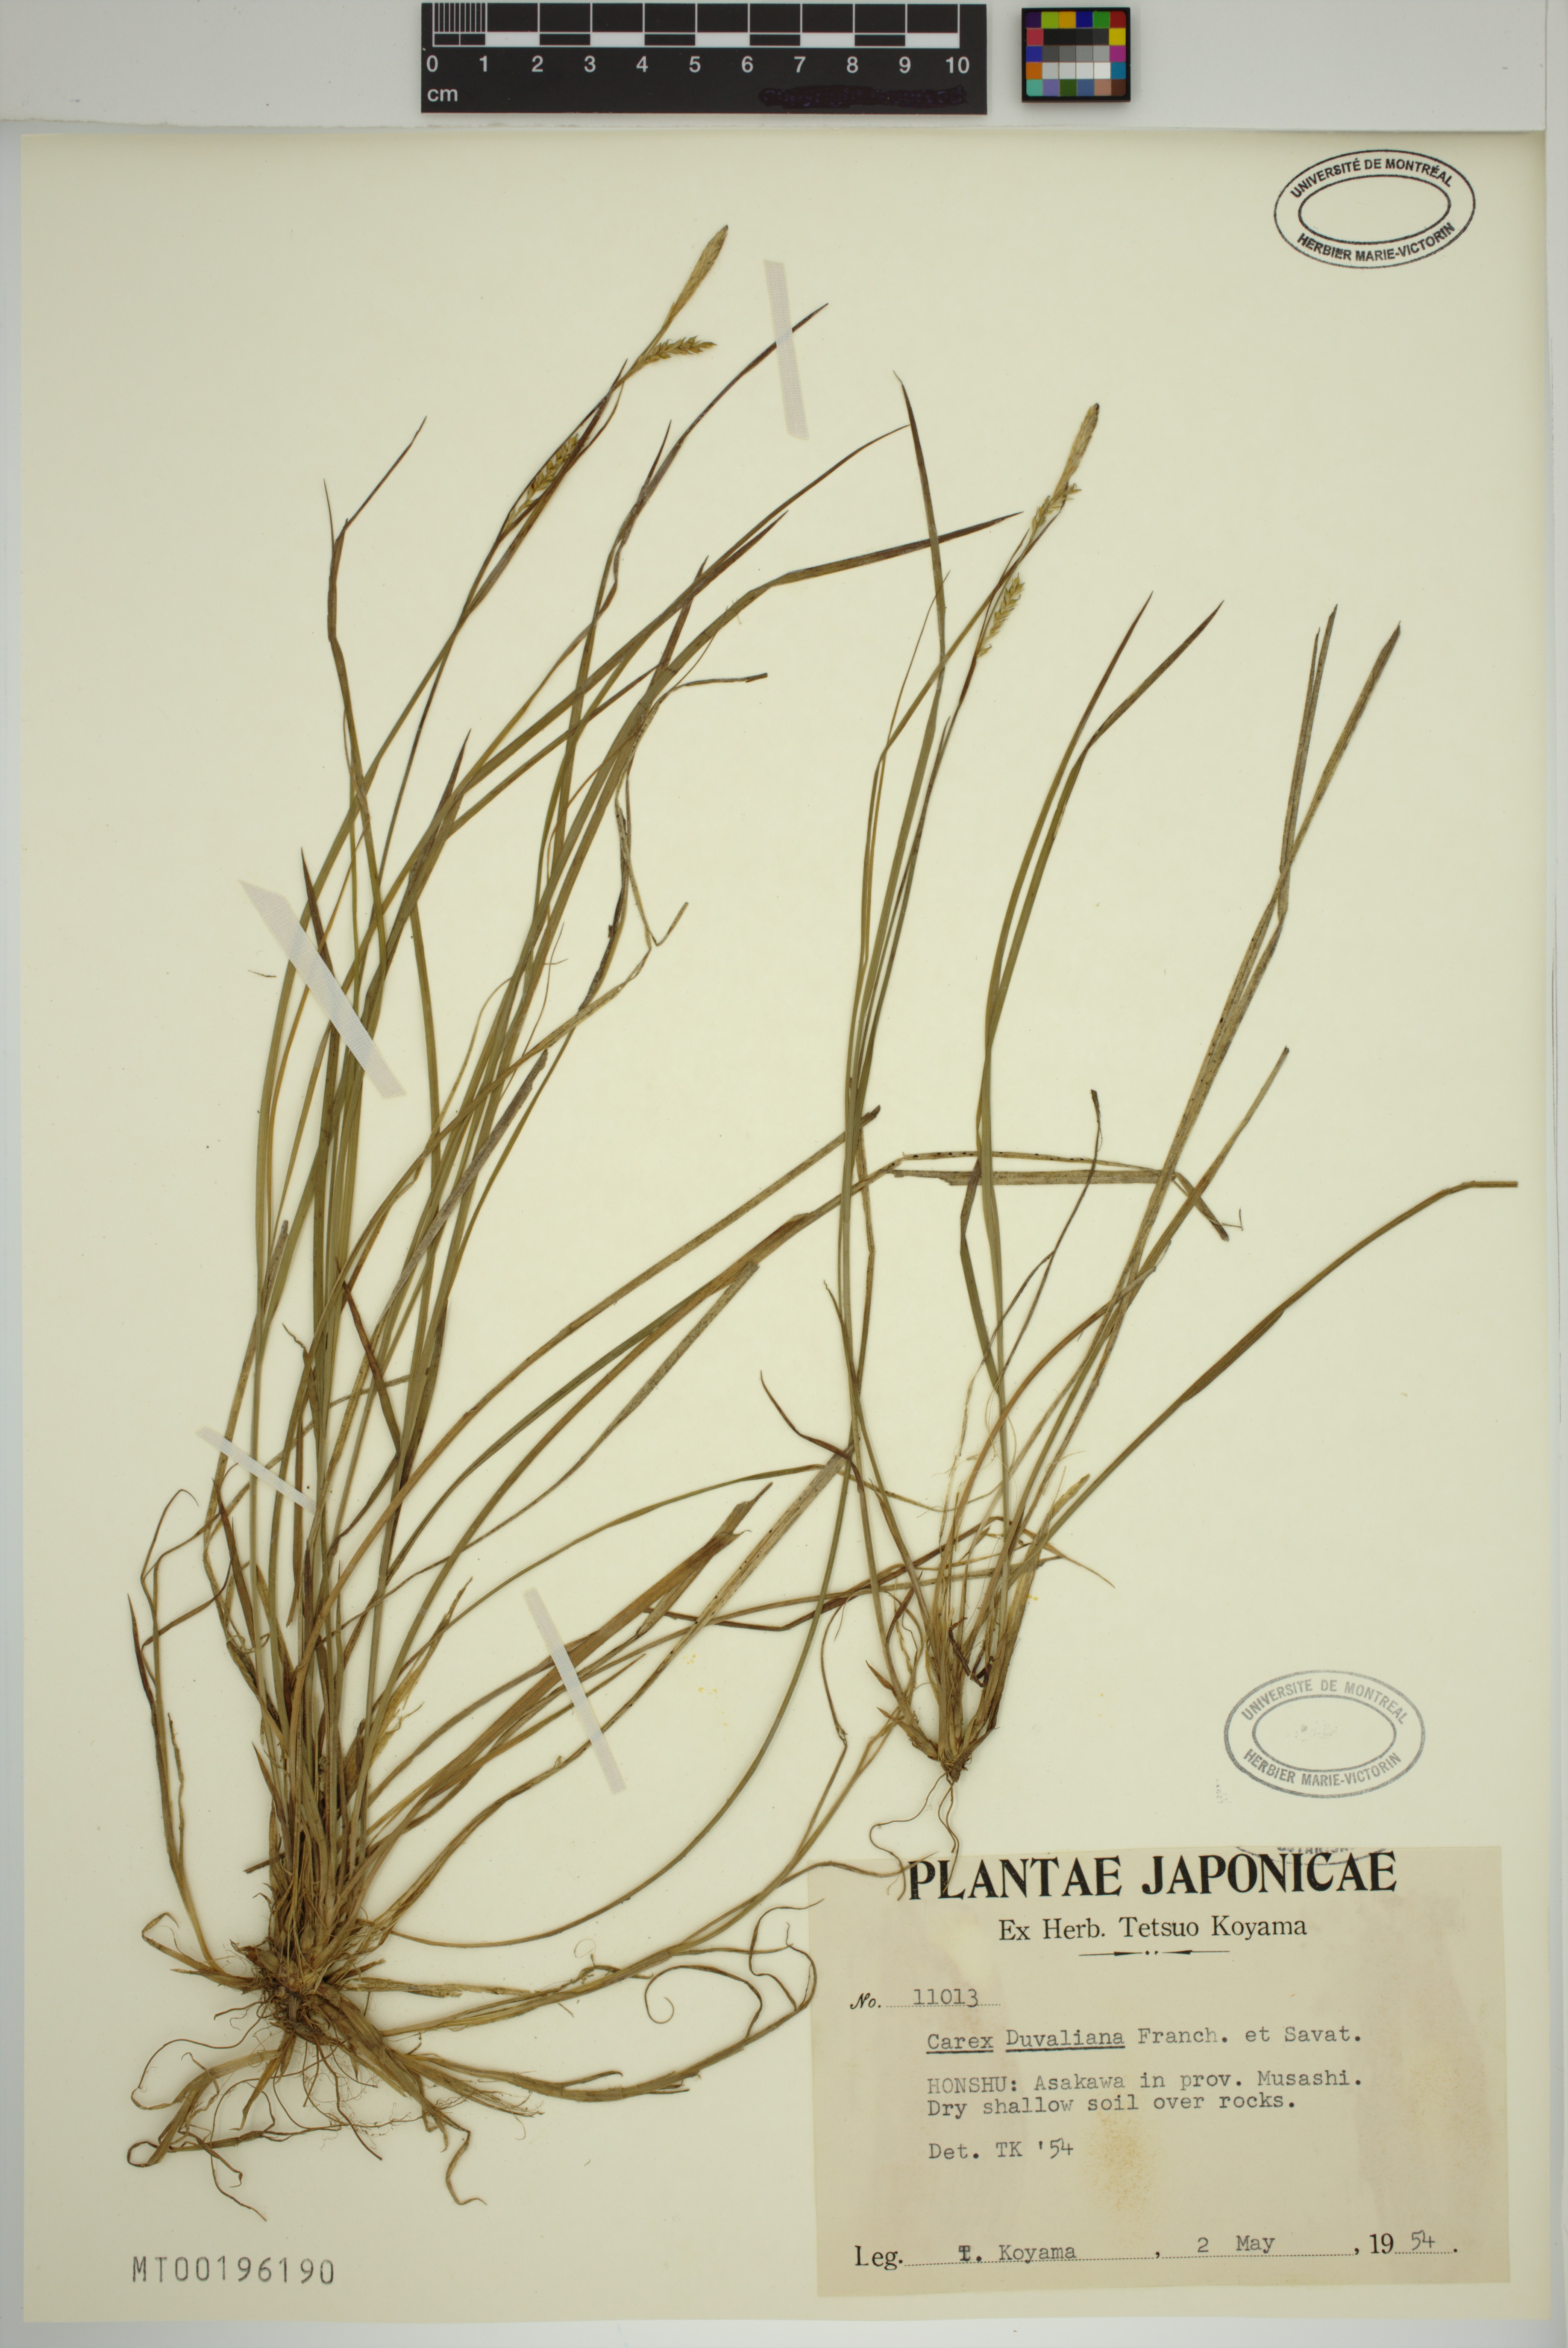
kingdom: Plantae
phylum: Tracheophyta
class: Liliopsida
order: Poales
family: Cyperaceae
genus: Carex
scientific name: Carex duvaliana
